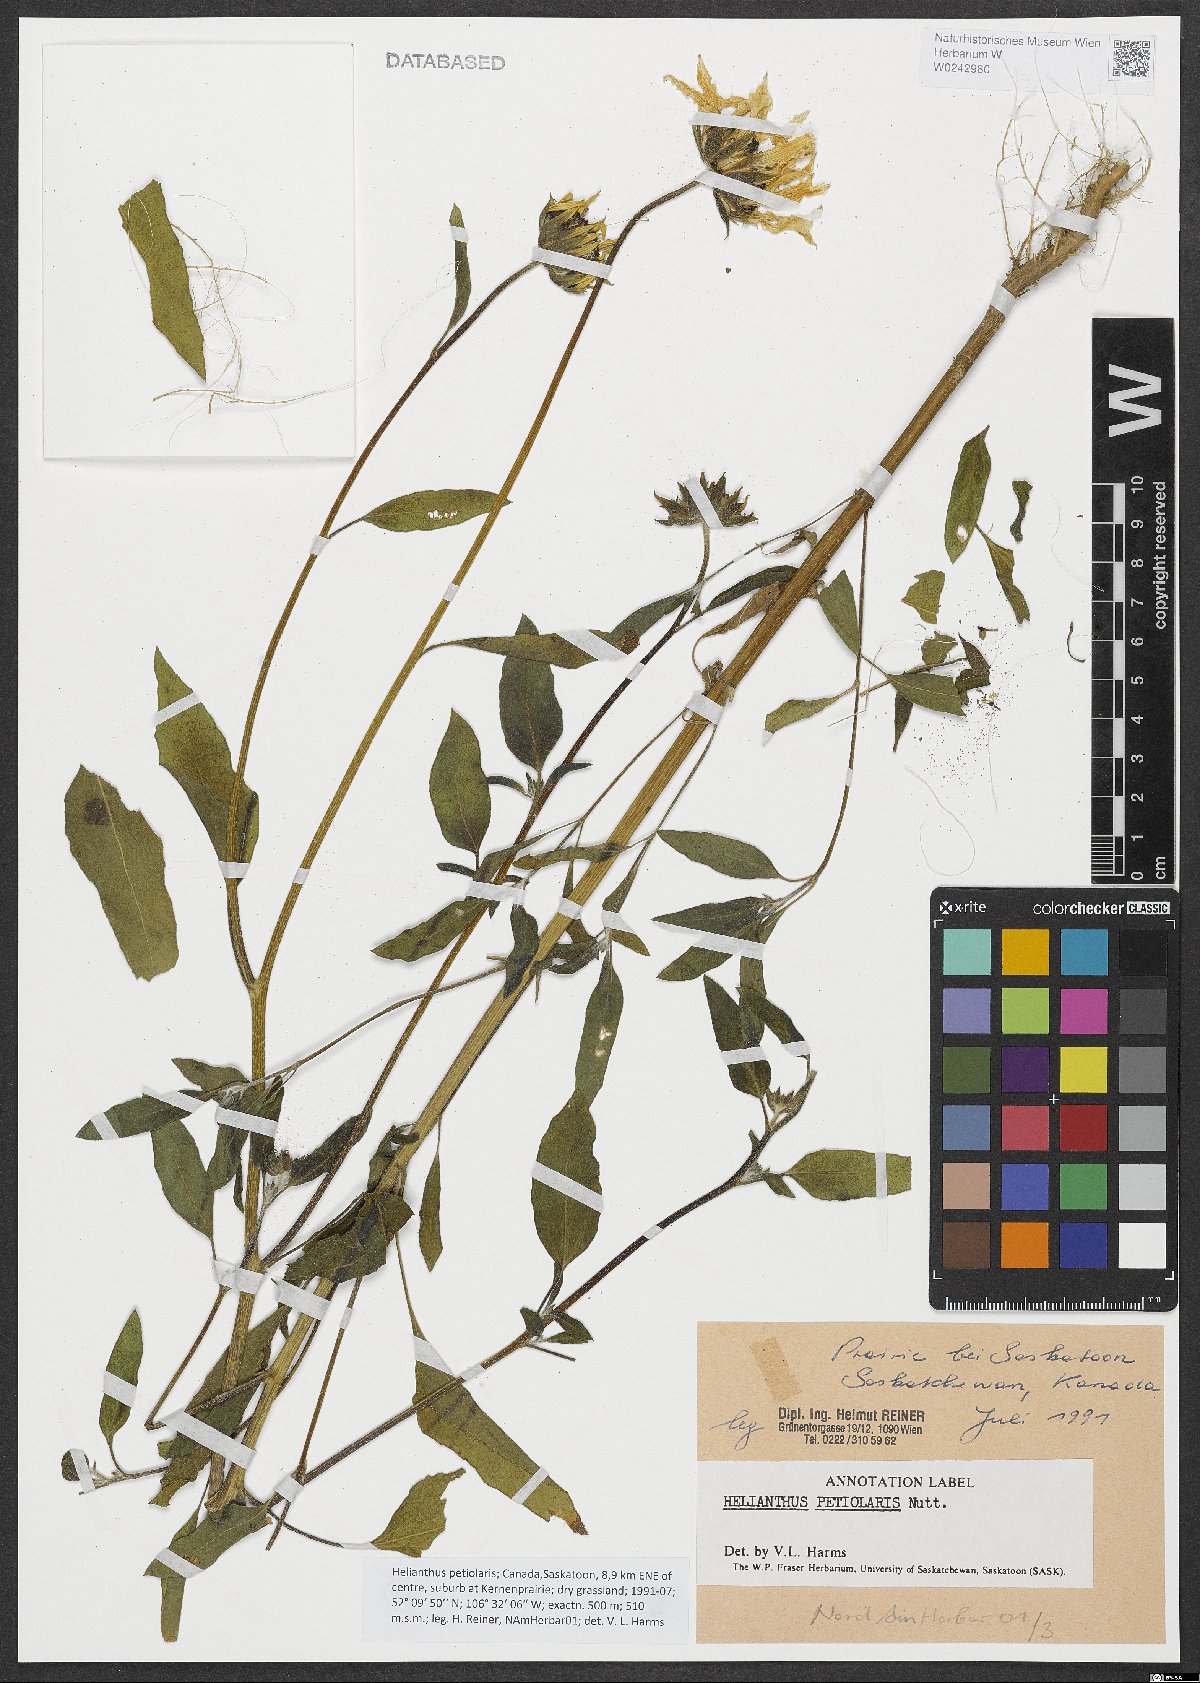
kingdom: Plantae
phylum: Tracheophyta
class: Magnoliopsida
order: Asterales
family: Asteraceae
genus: Helianthus
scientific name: Helianthus petiolaris
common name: Lesser sunflower
